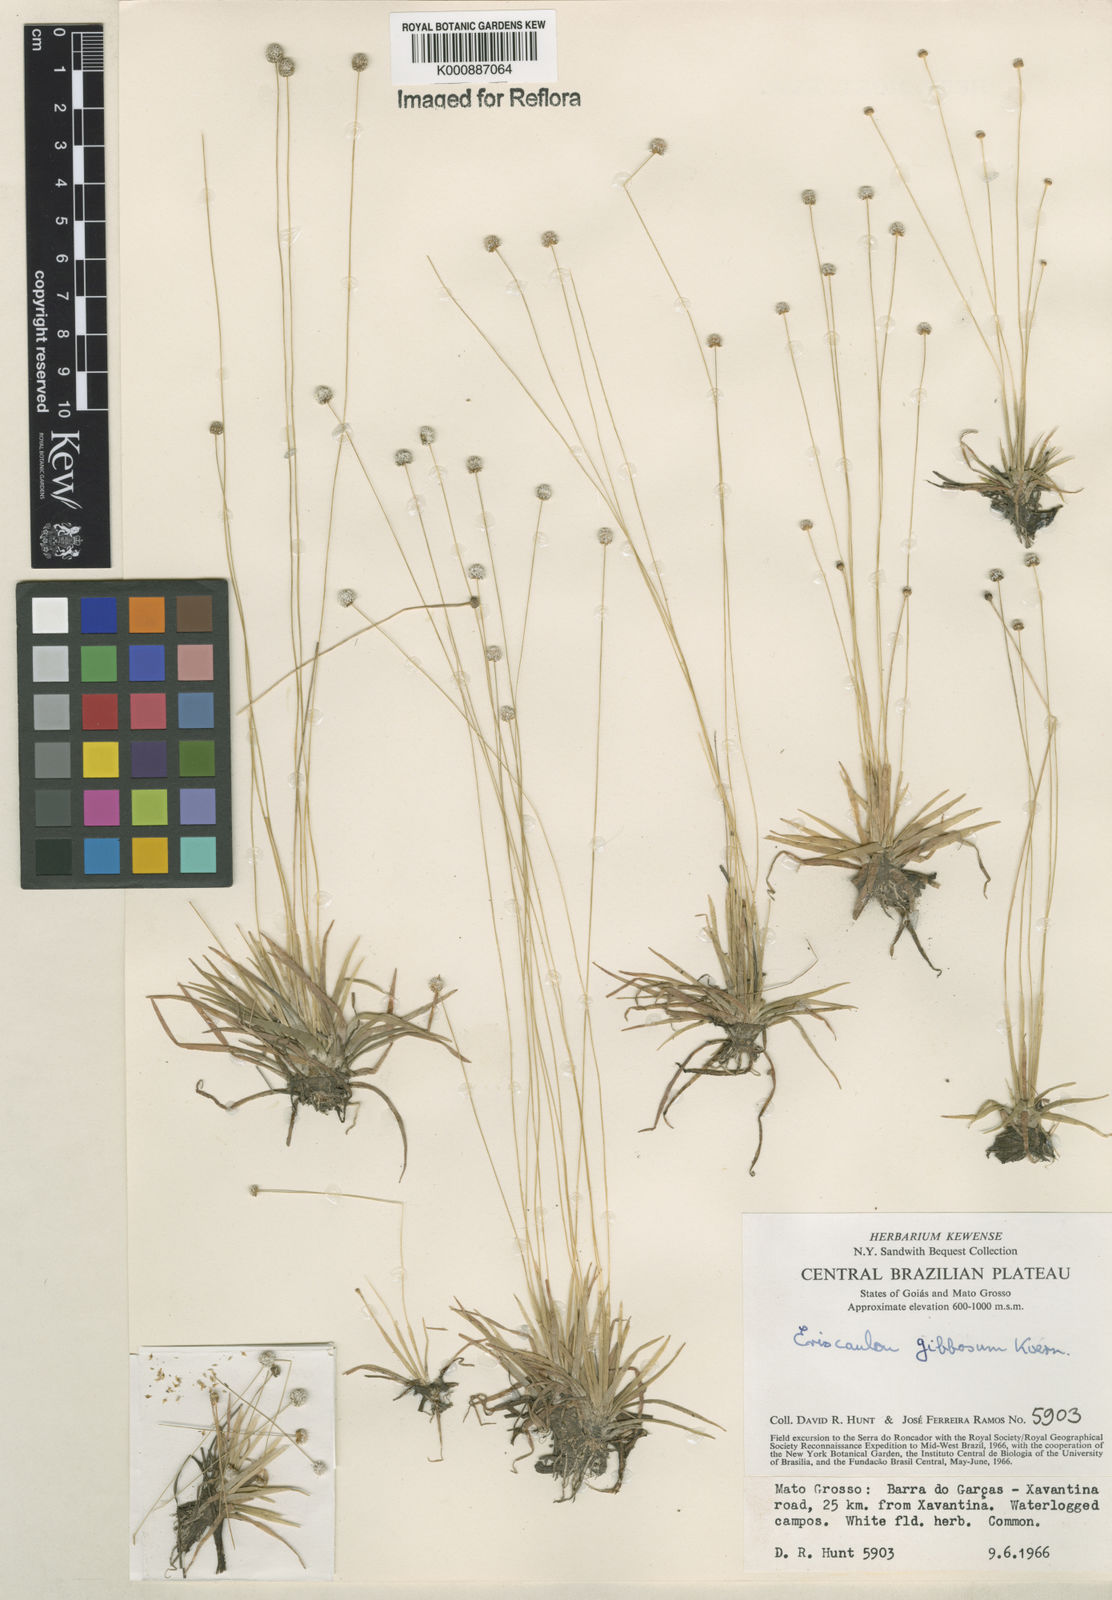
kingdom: Plantae
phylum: Tracheophyta
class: Liliopsida
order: Poales
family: Eriocaulaceae
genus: Eriocaulon
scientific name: Eriocaulon
